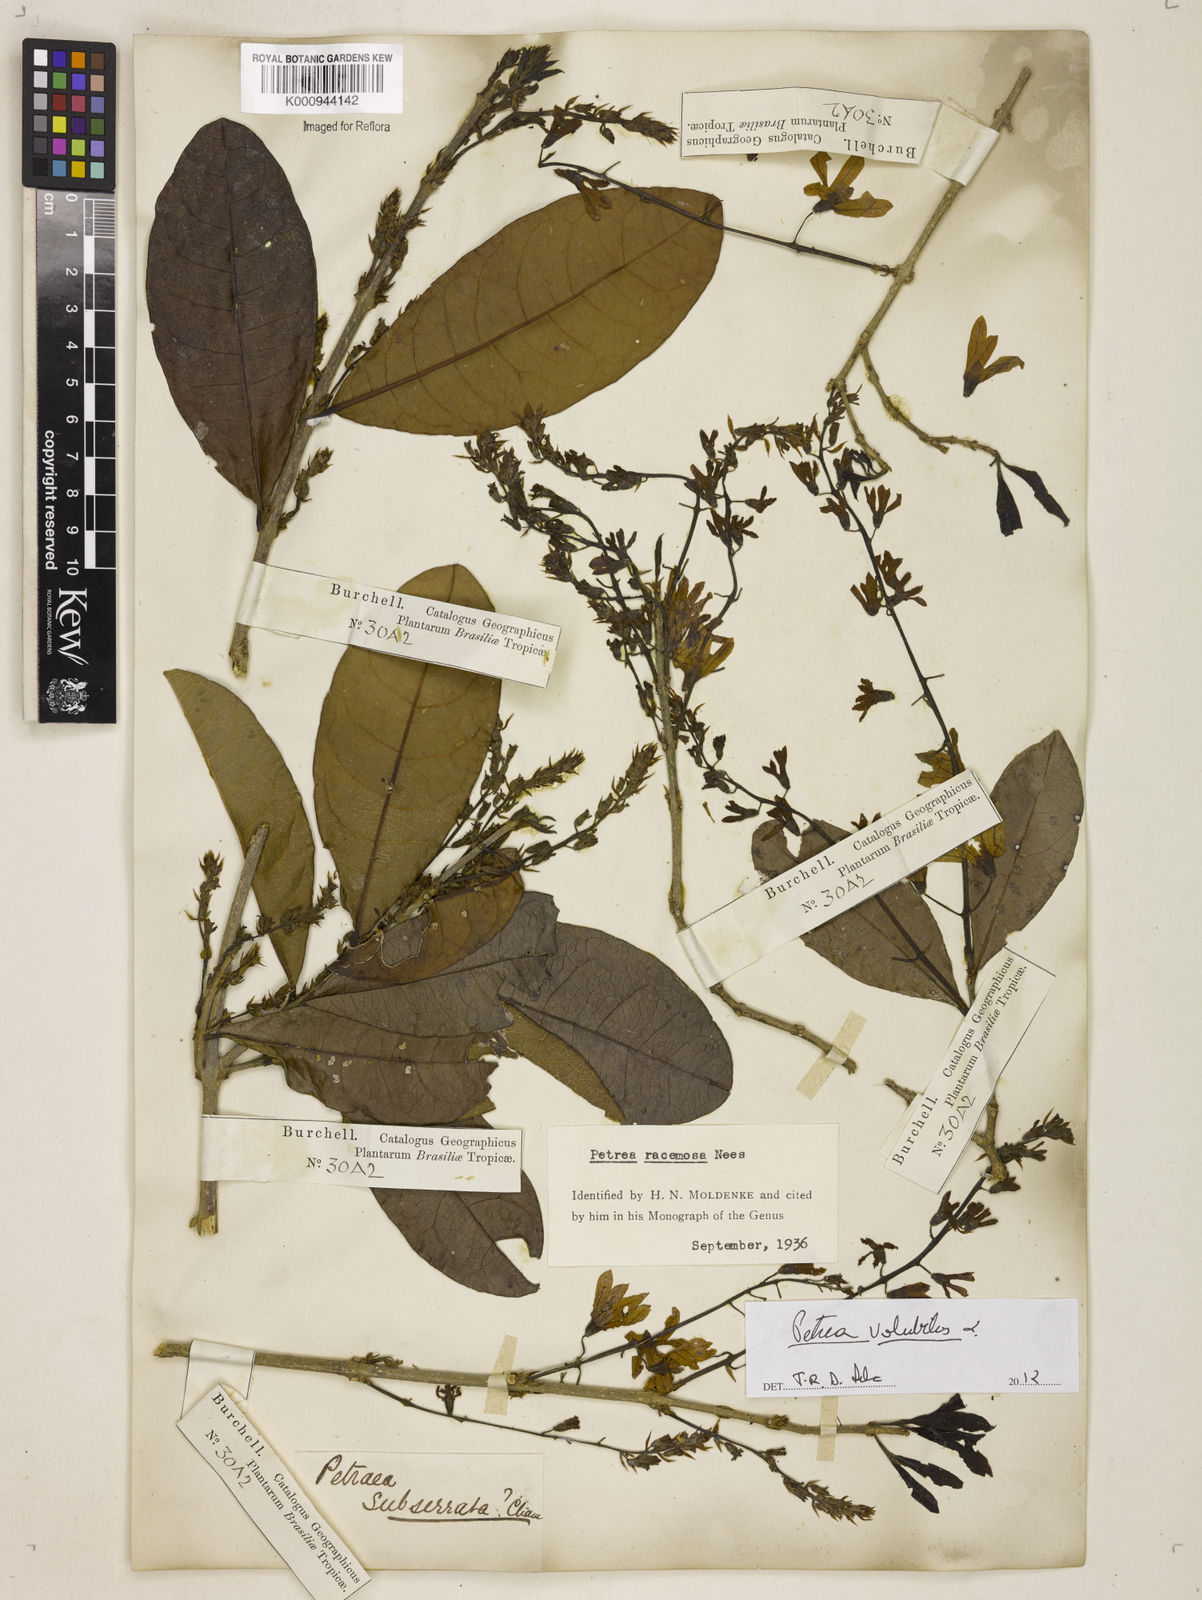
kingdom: Plantae
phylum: Tracheophyta
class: Magnoliopsida
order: Lamiales
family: Verbenaceae
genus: Petrea
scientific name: Petrea
